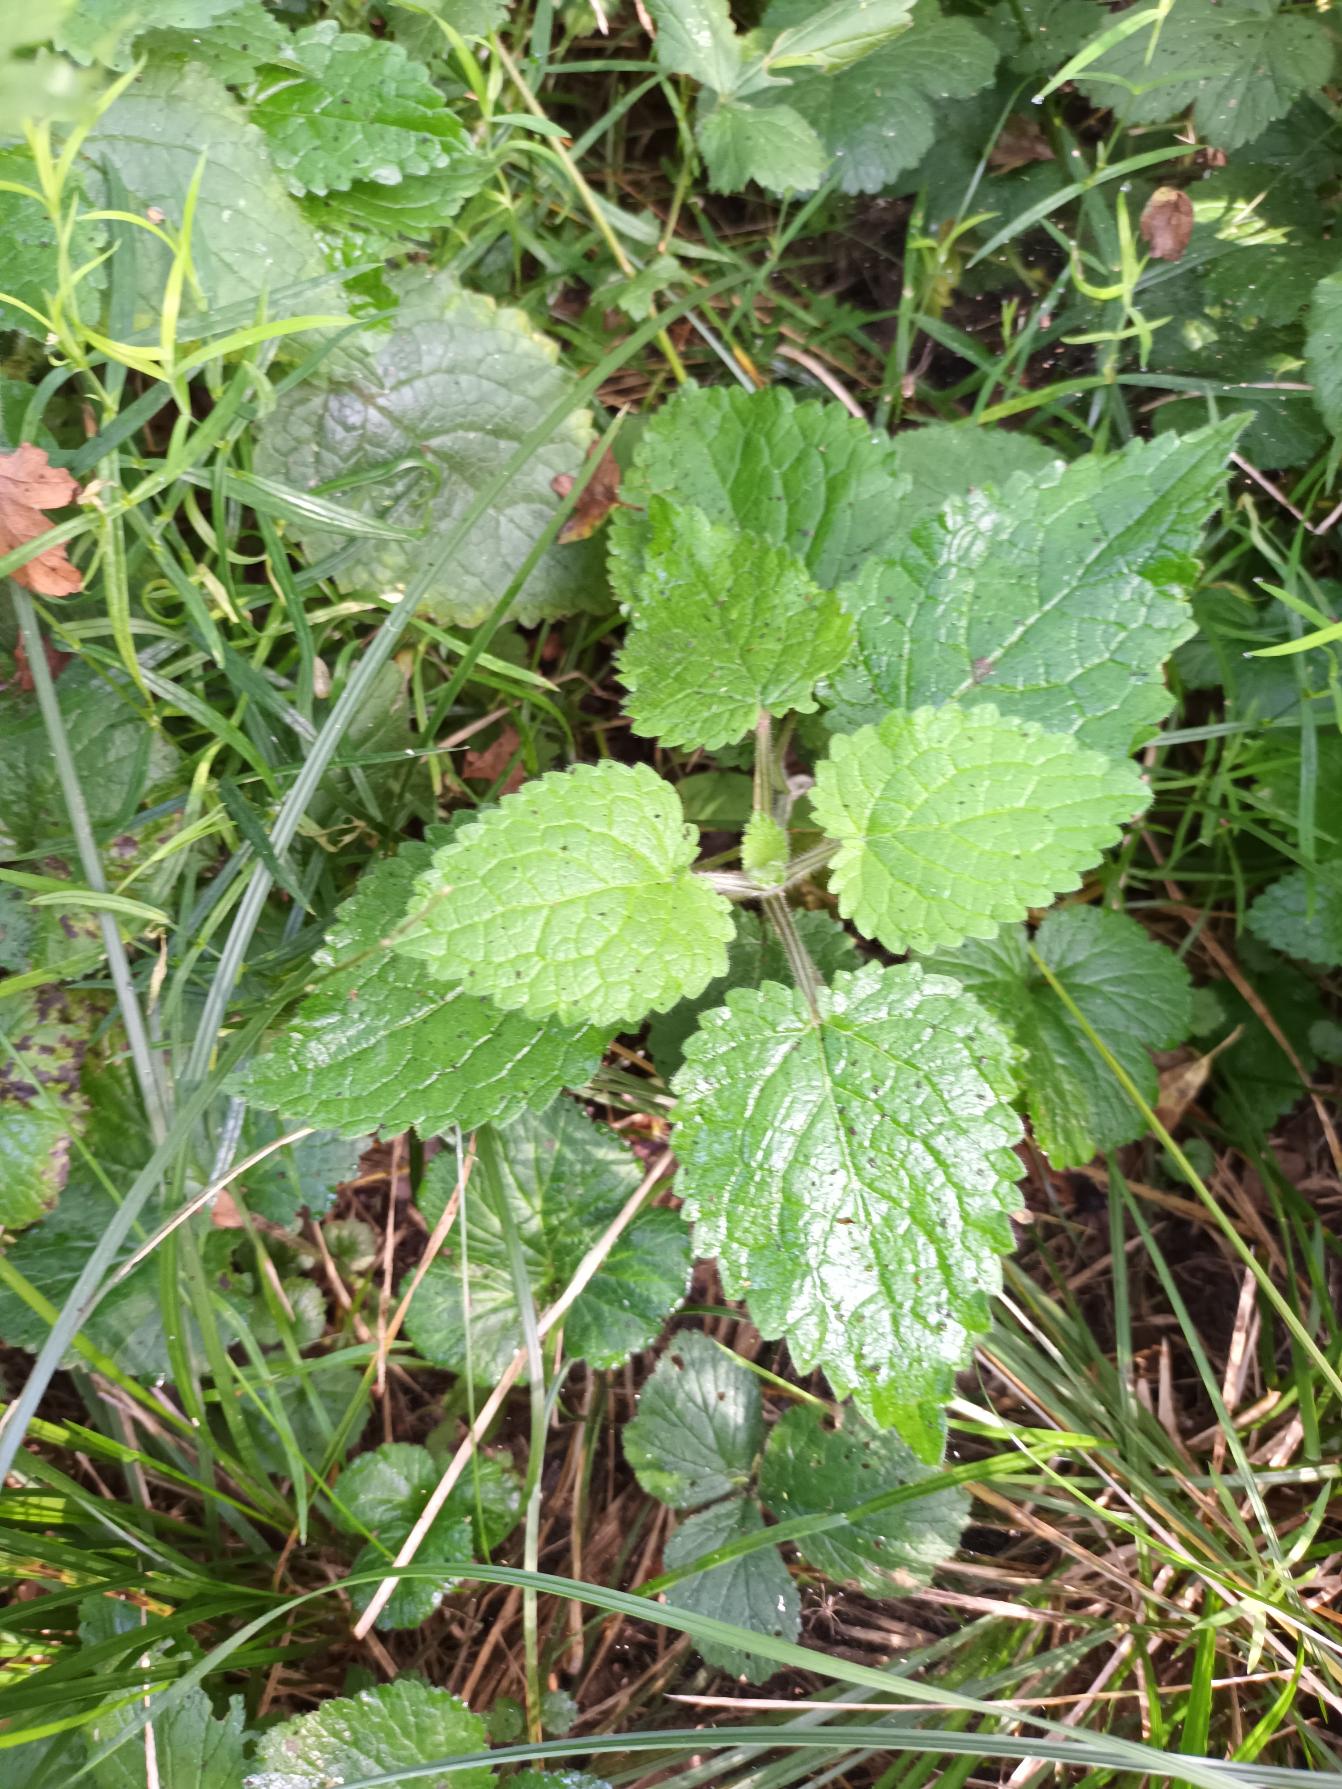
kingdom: Plantae
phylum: Tracheophyta
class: Magnoliopsida
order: Lamiales
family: Lamiaceae
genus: Stachys
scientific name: Stachys sylvatica
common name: Skov-galtetand
